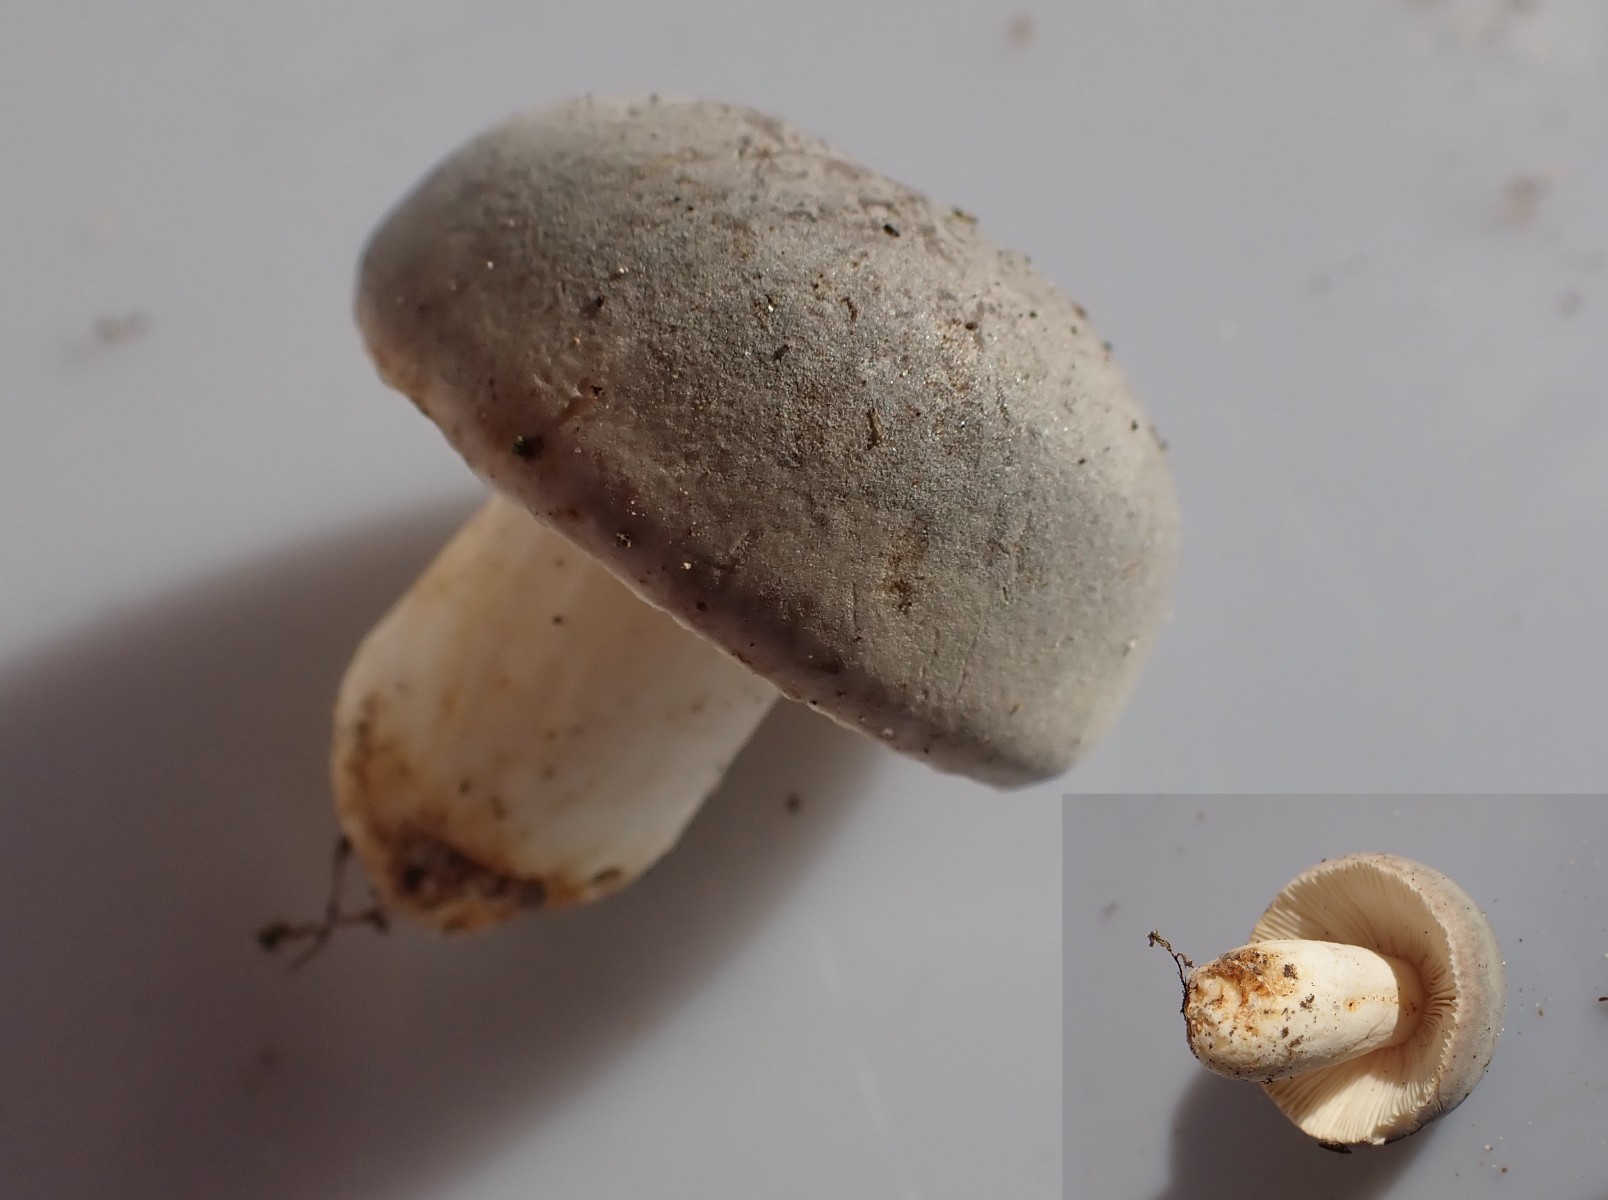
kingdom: Fungi
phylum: Basidiomycota
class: Agaricomycetes
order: Russulales
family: Russulaceae
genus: Russula
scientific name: Russula
